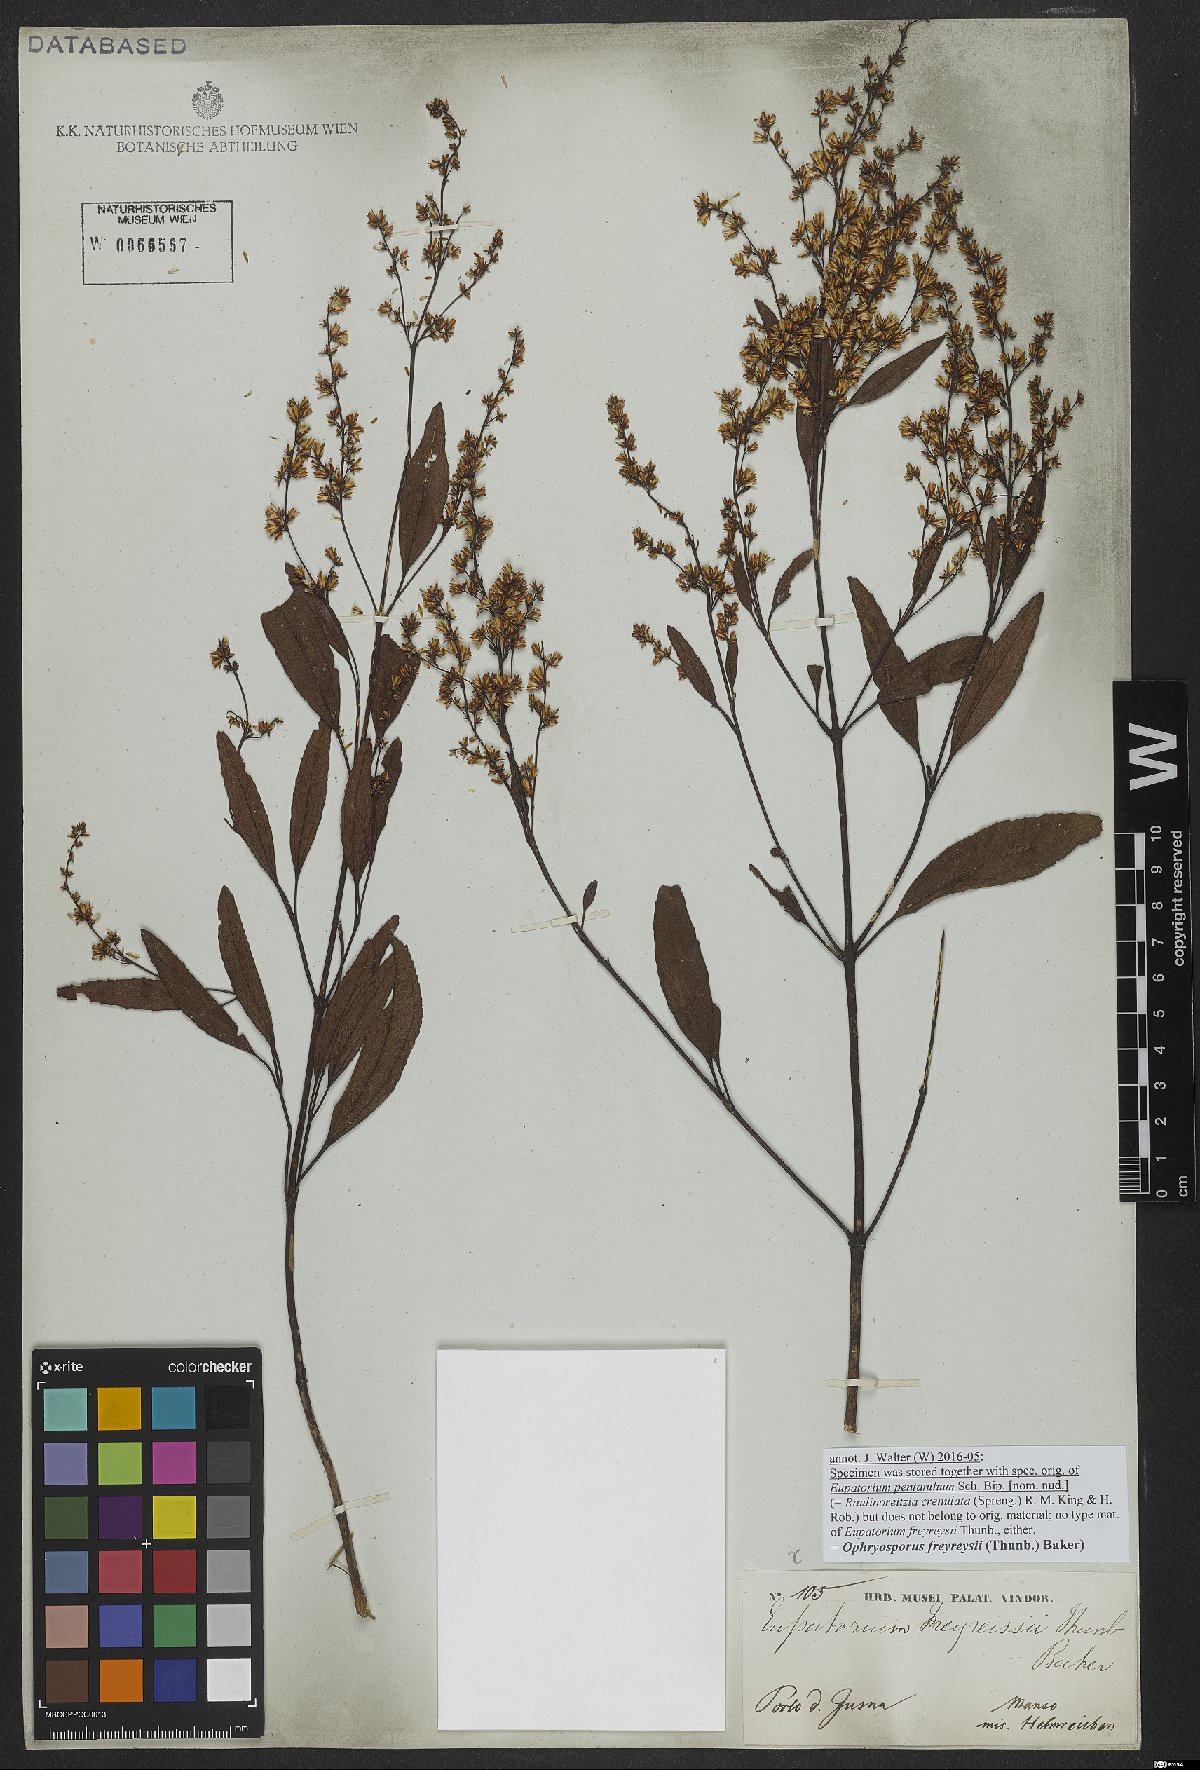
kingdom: Plantae
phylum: Tracheophyta
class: Magnoliopsida
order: Asterales
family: Asteraceae
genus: Ophryosporus
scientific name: Ophryosporus freyreysi
